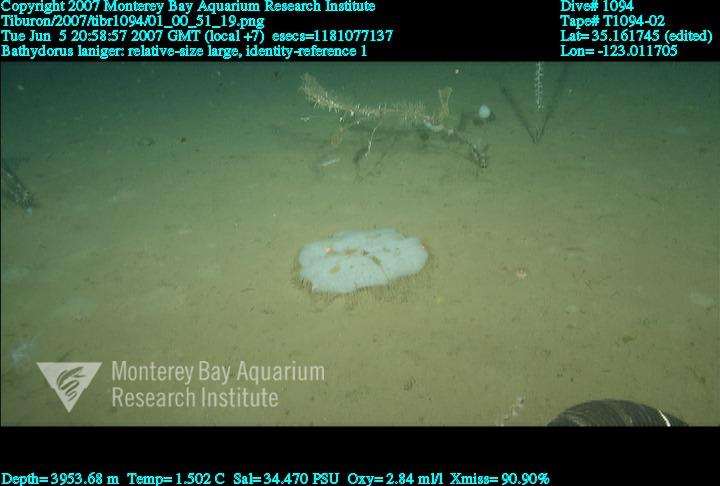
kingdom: Animalia
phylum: Porifera
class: Hexactinellida
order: Lyssacinosida
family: Rossellidae
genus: Bathydorus
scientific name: Bathydorus laniger
